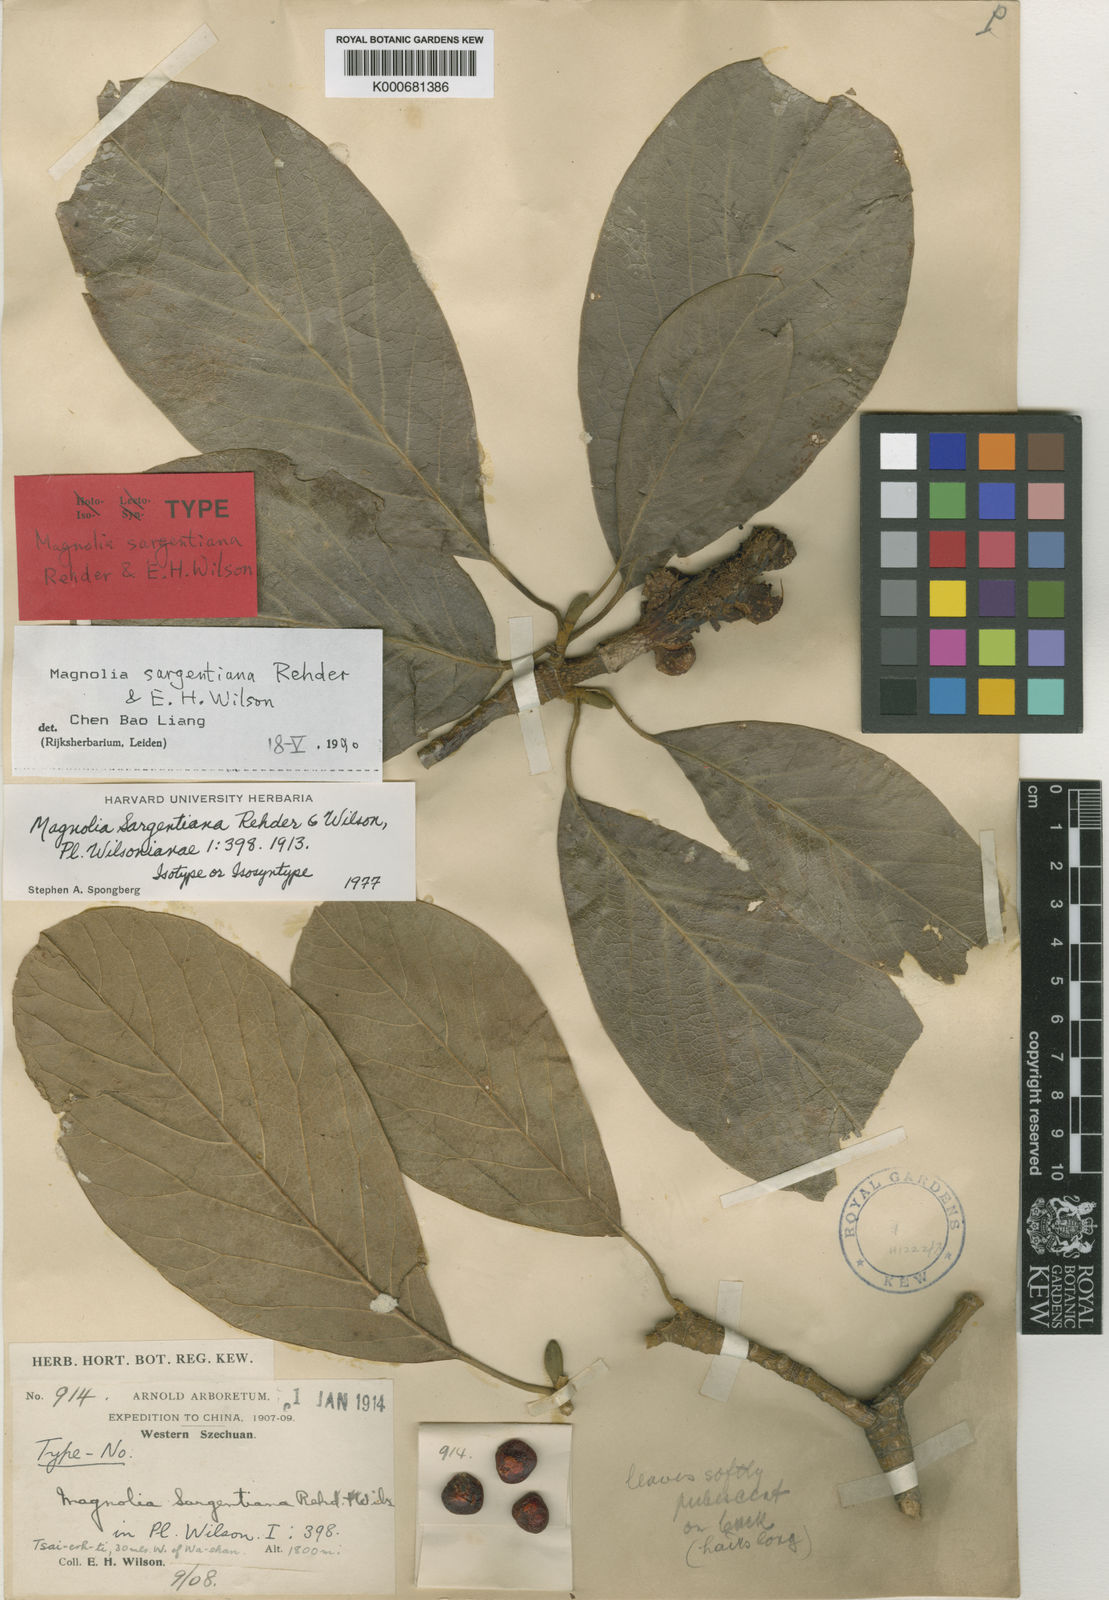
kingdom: Plantae
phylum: Tracheophyta
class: Magnoliopsida
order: Magnoliales
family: Magnoliaceae
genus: Magnolia
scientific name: Magnolia sargentiana
